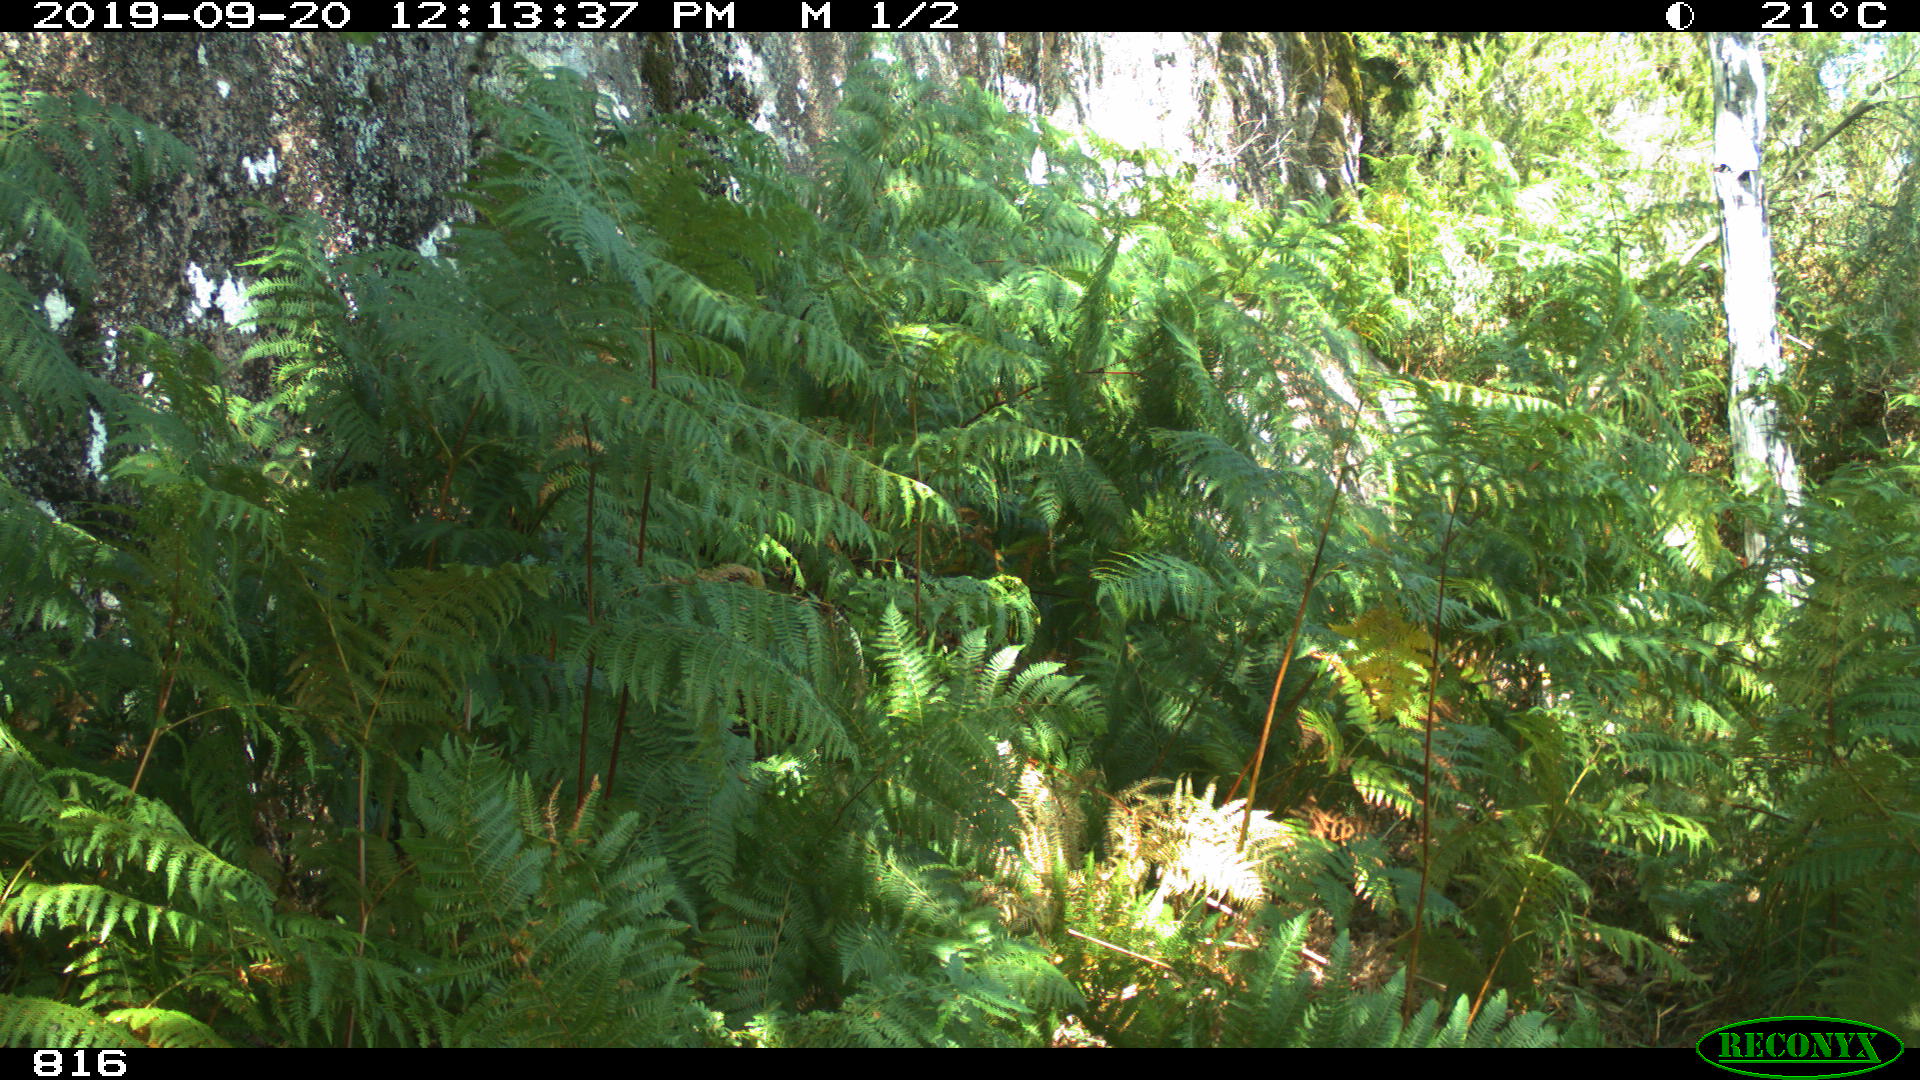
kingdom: Animalia
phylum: Chordata
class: Mammalia
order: Artiodactyla
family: Bovidae
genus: Bos
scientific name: Bos taurus
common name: Domesticated cattle
